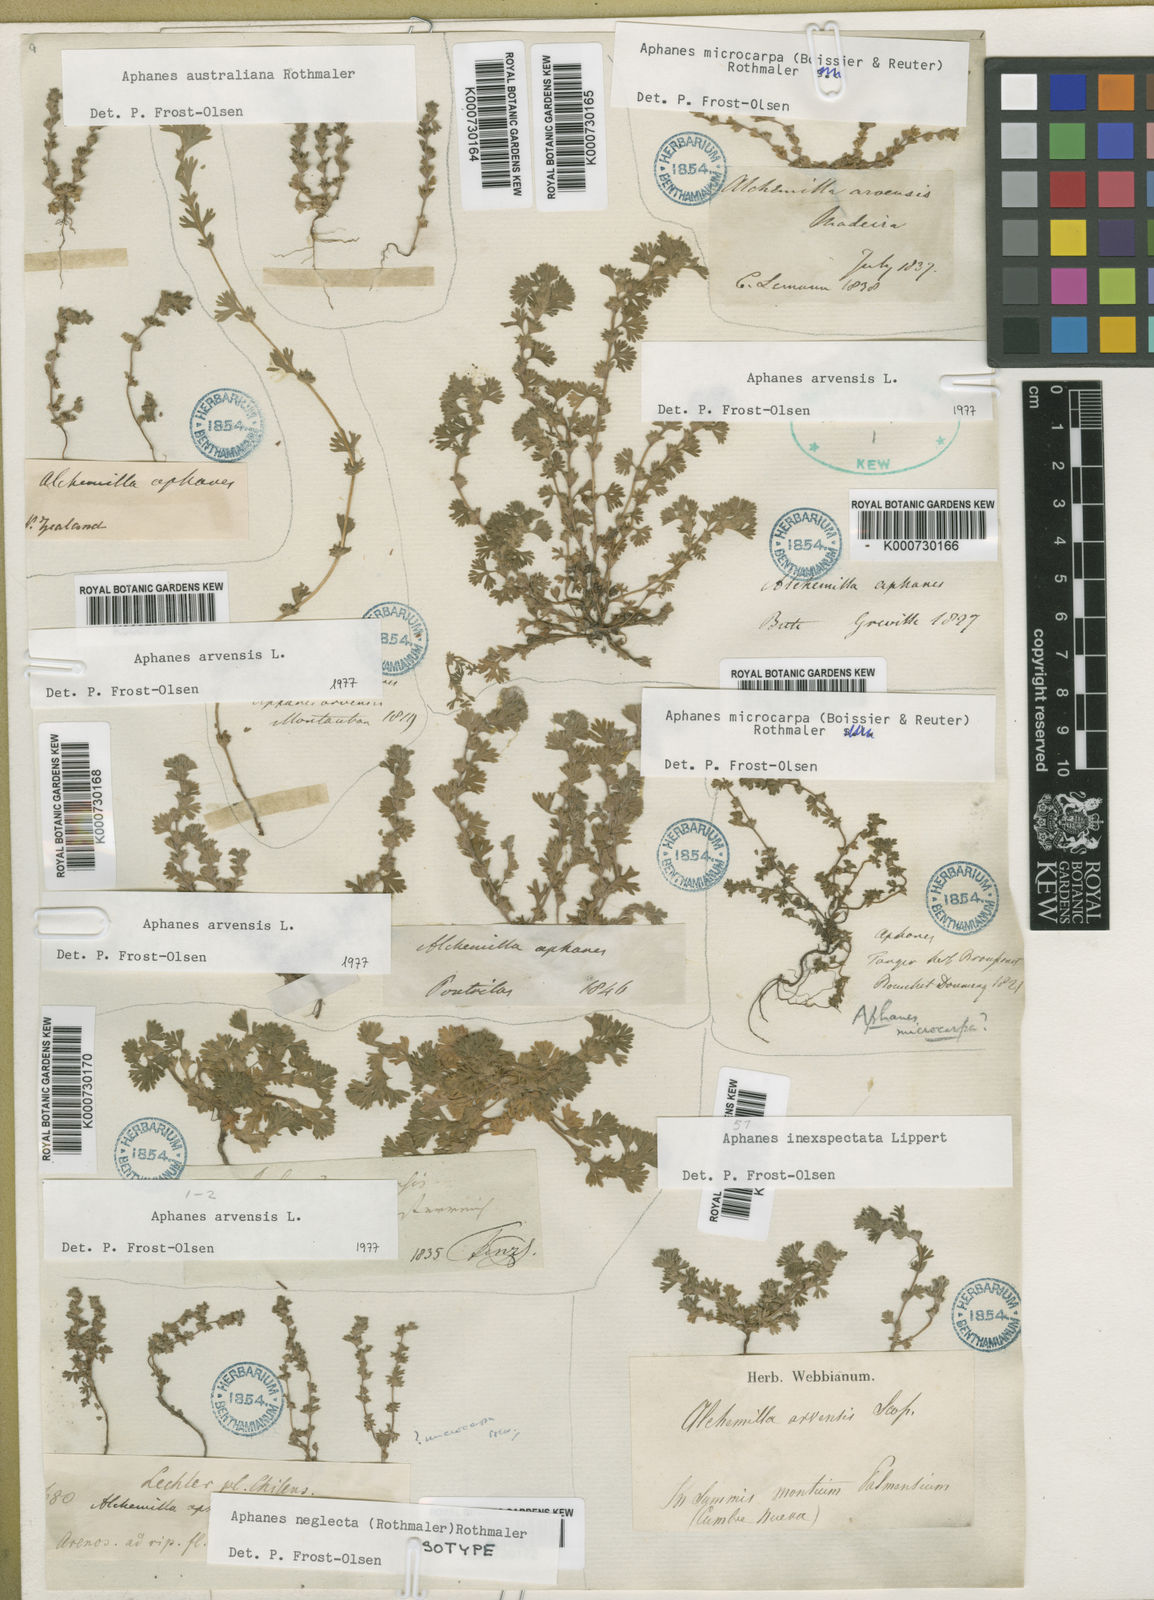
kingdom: Plantae
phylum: Tracheophyta
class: Magnoliopsida
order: Rosales
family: Rosaceae
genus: Aphanes
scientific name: Aphanes australis
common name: Slender parsley-piert
